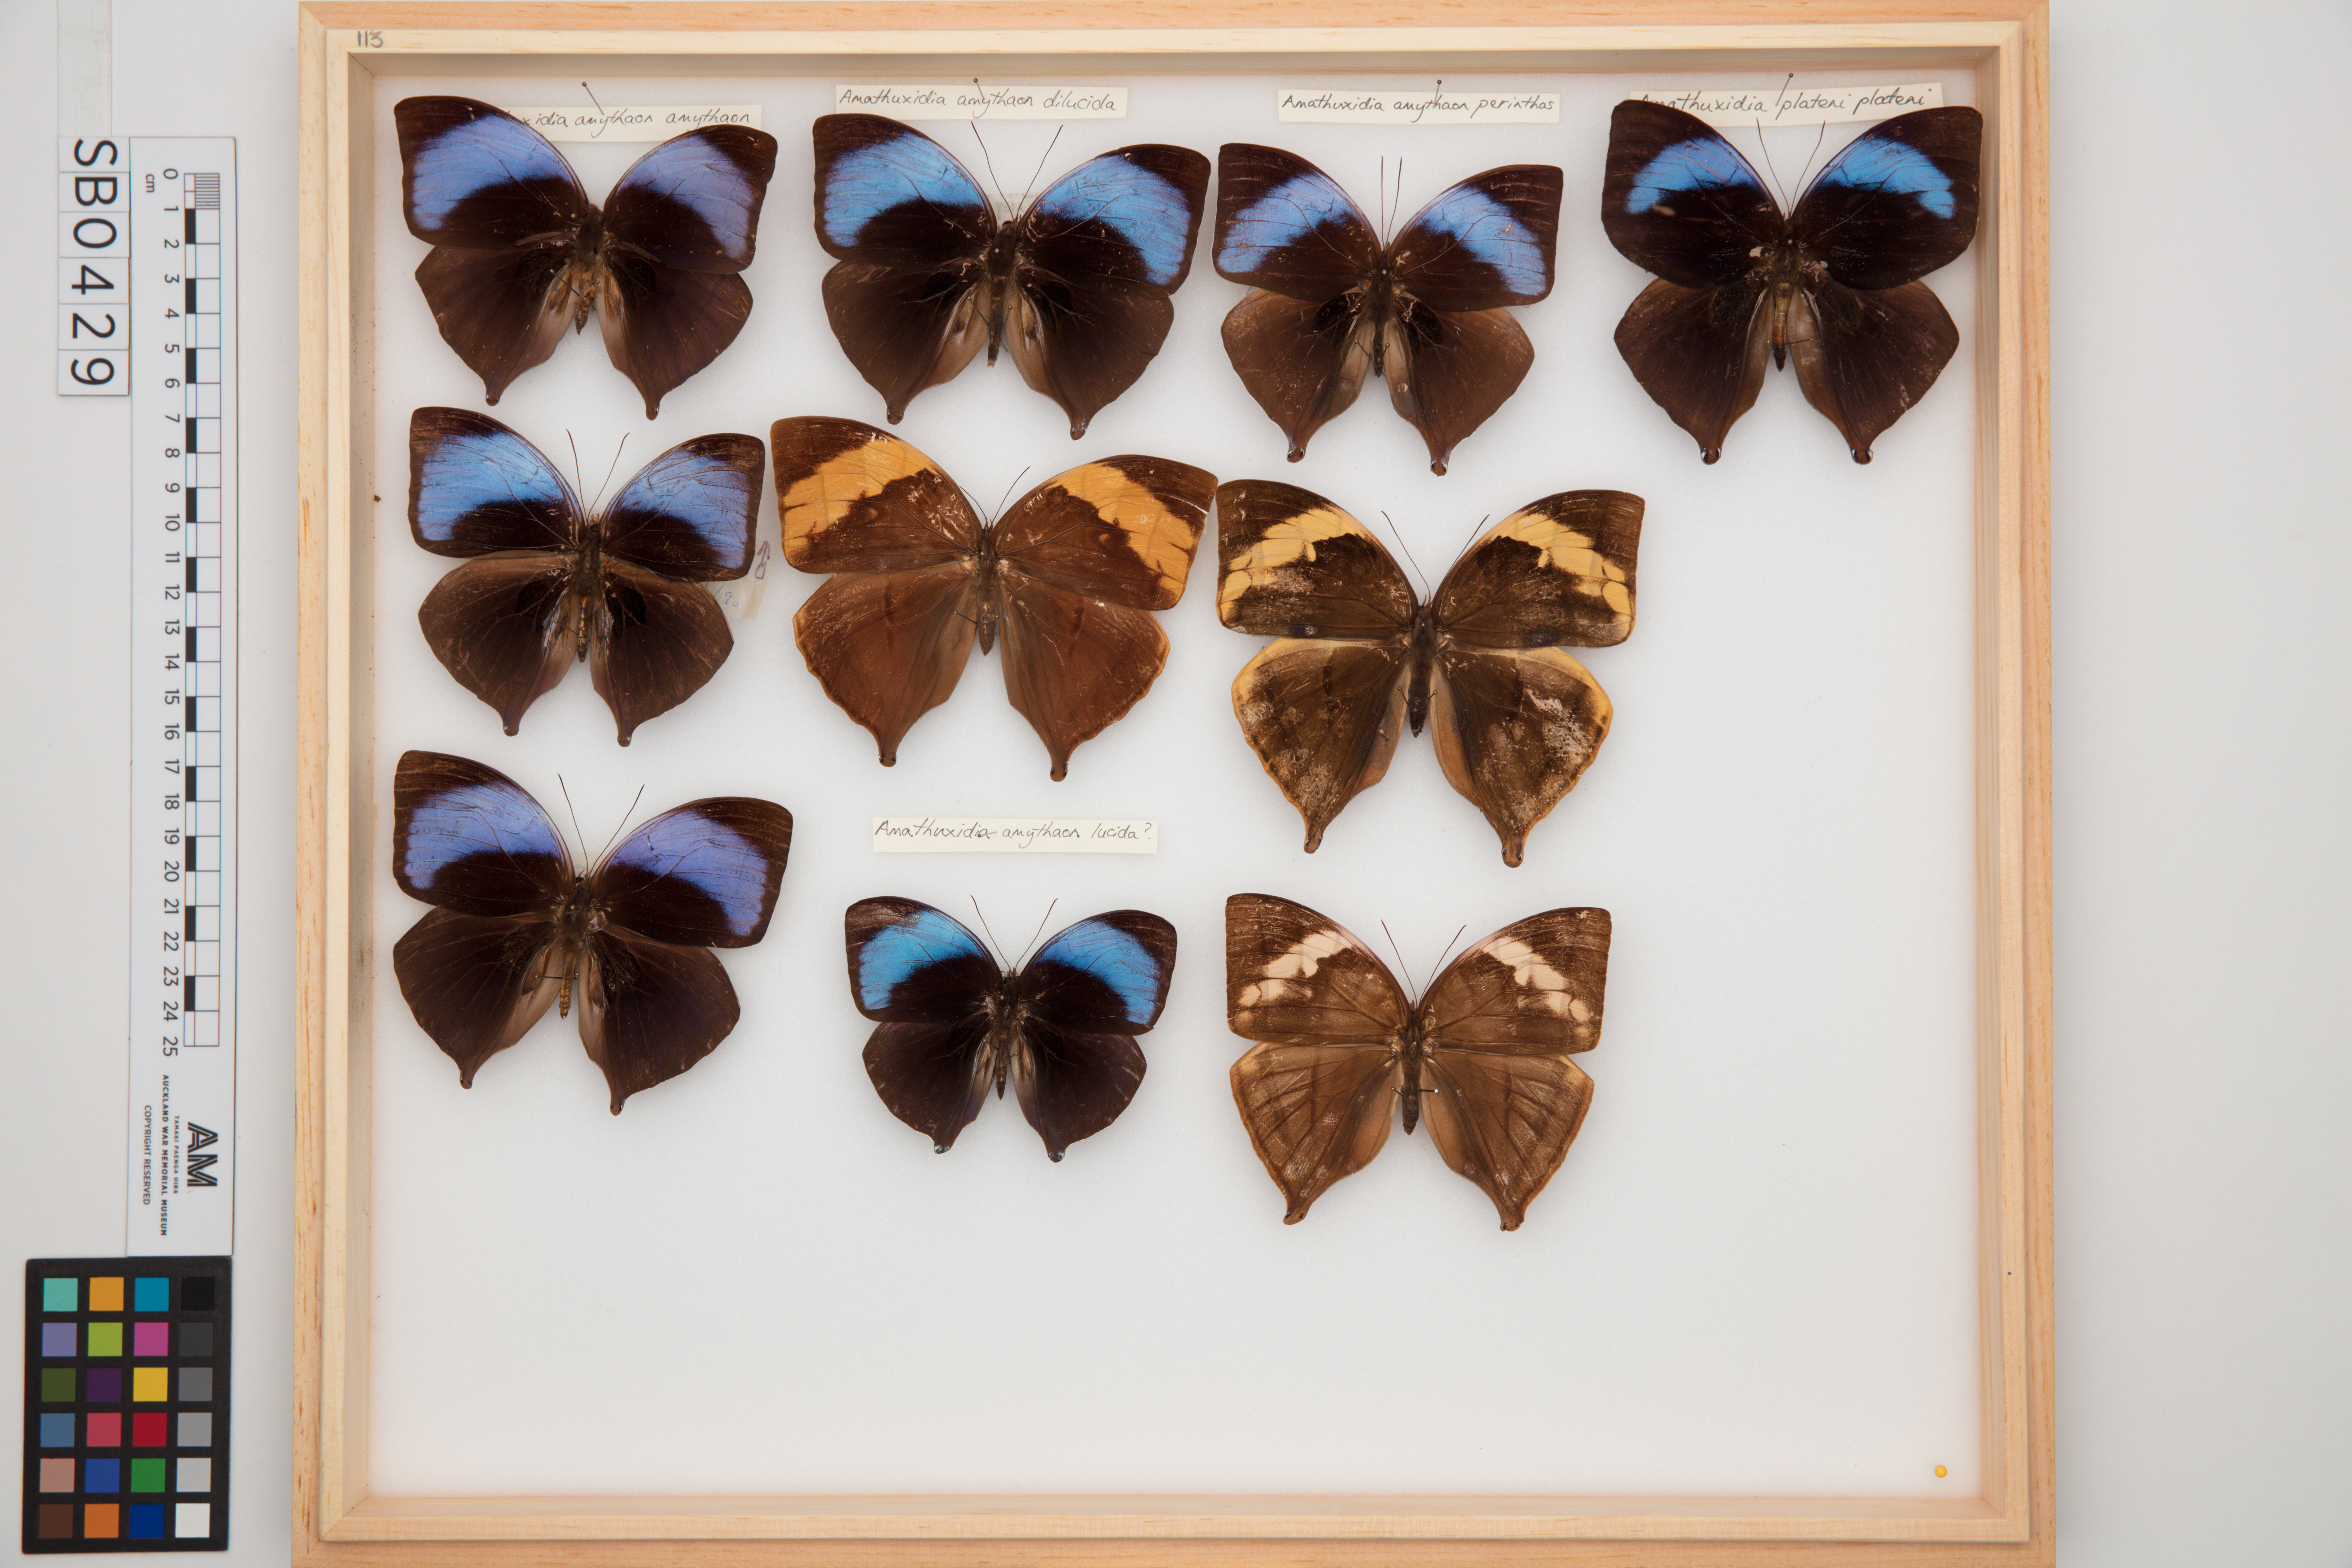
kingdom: Animalia
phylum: Arthropoda
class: Insecta
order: Lepidoptera
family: Nymphalidae
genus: Amathuxidia
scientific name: Amathuxidia amythaon
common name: Koh-i-noor
